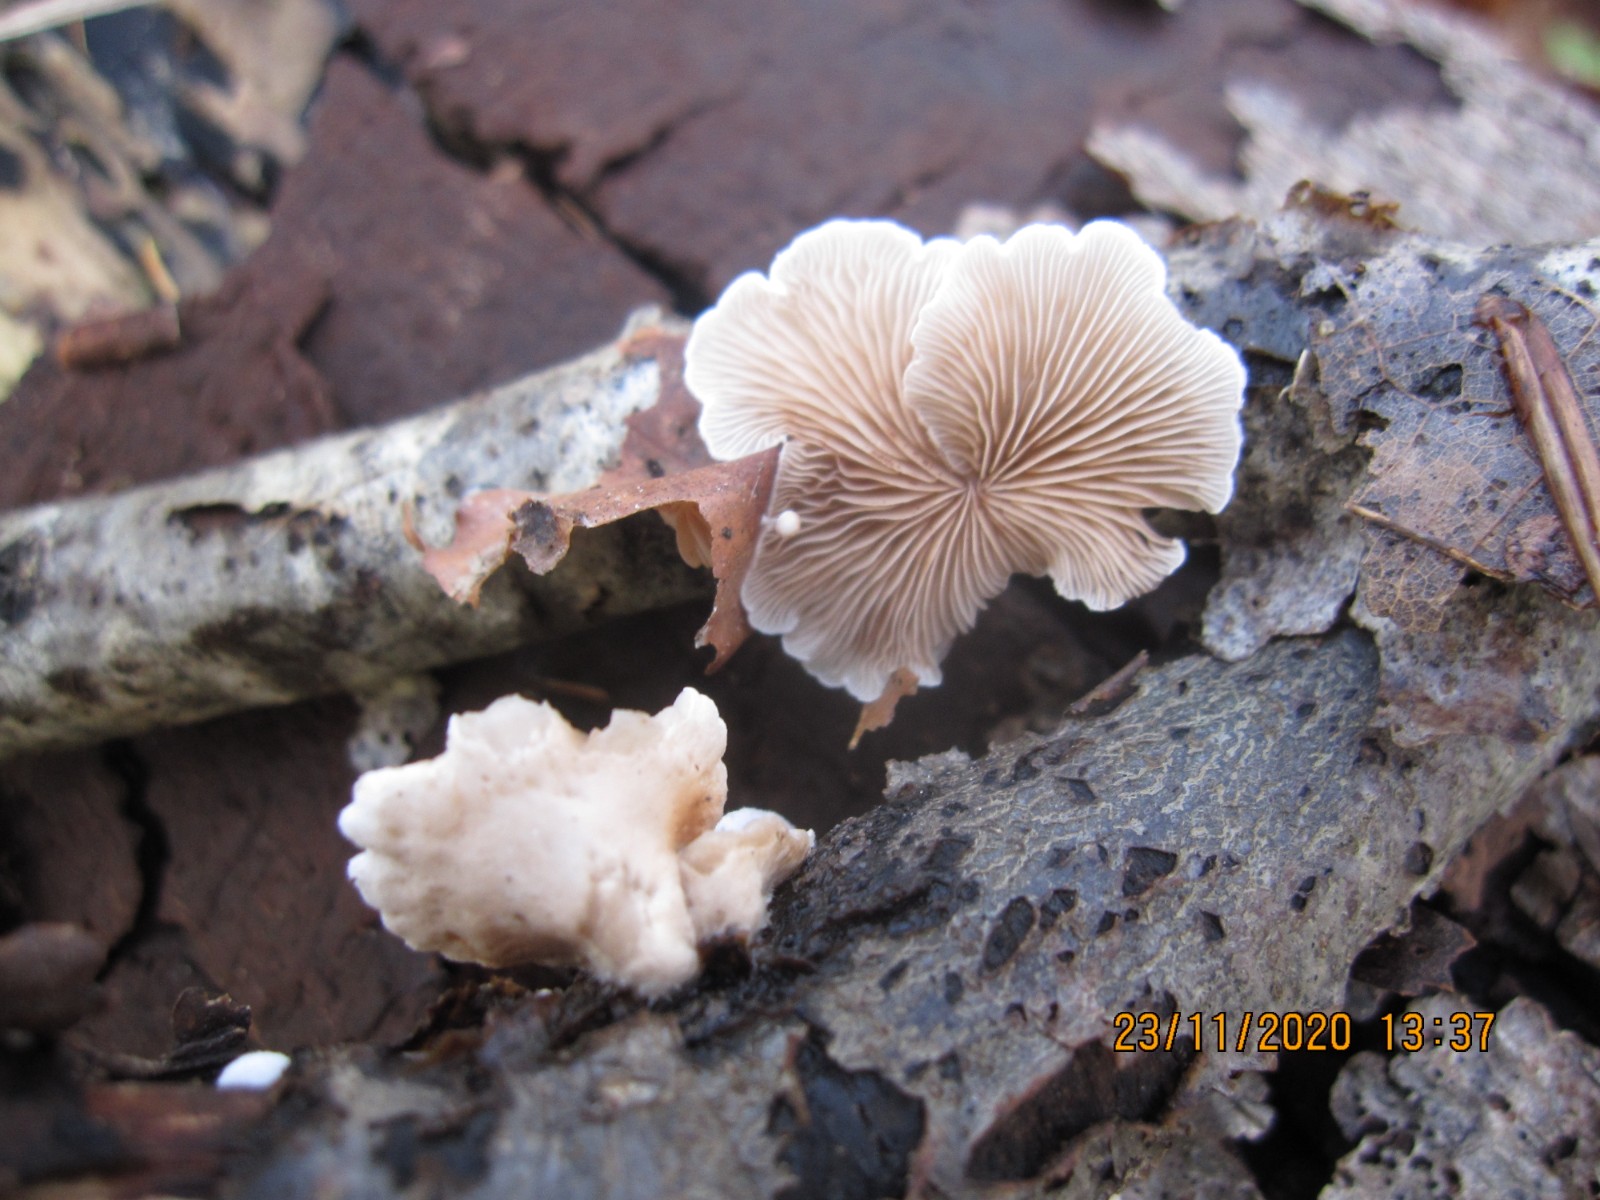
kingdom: Fungi
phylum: Basidiomycota
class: Agaricomycetes
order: Agaricales
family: Crepidotaceae
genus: Crepidotus
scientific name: Crepidotus variabilis
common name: forskelligformet muslingesvamp
